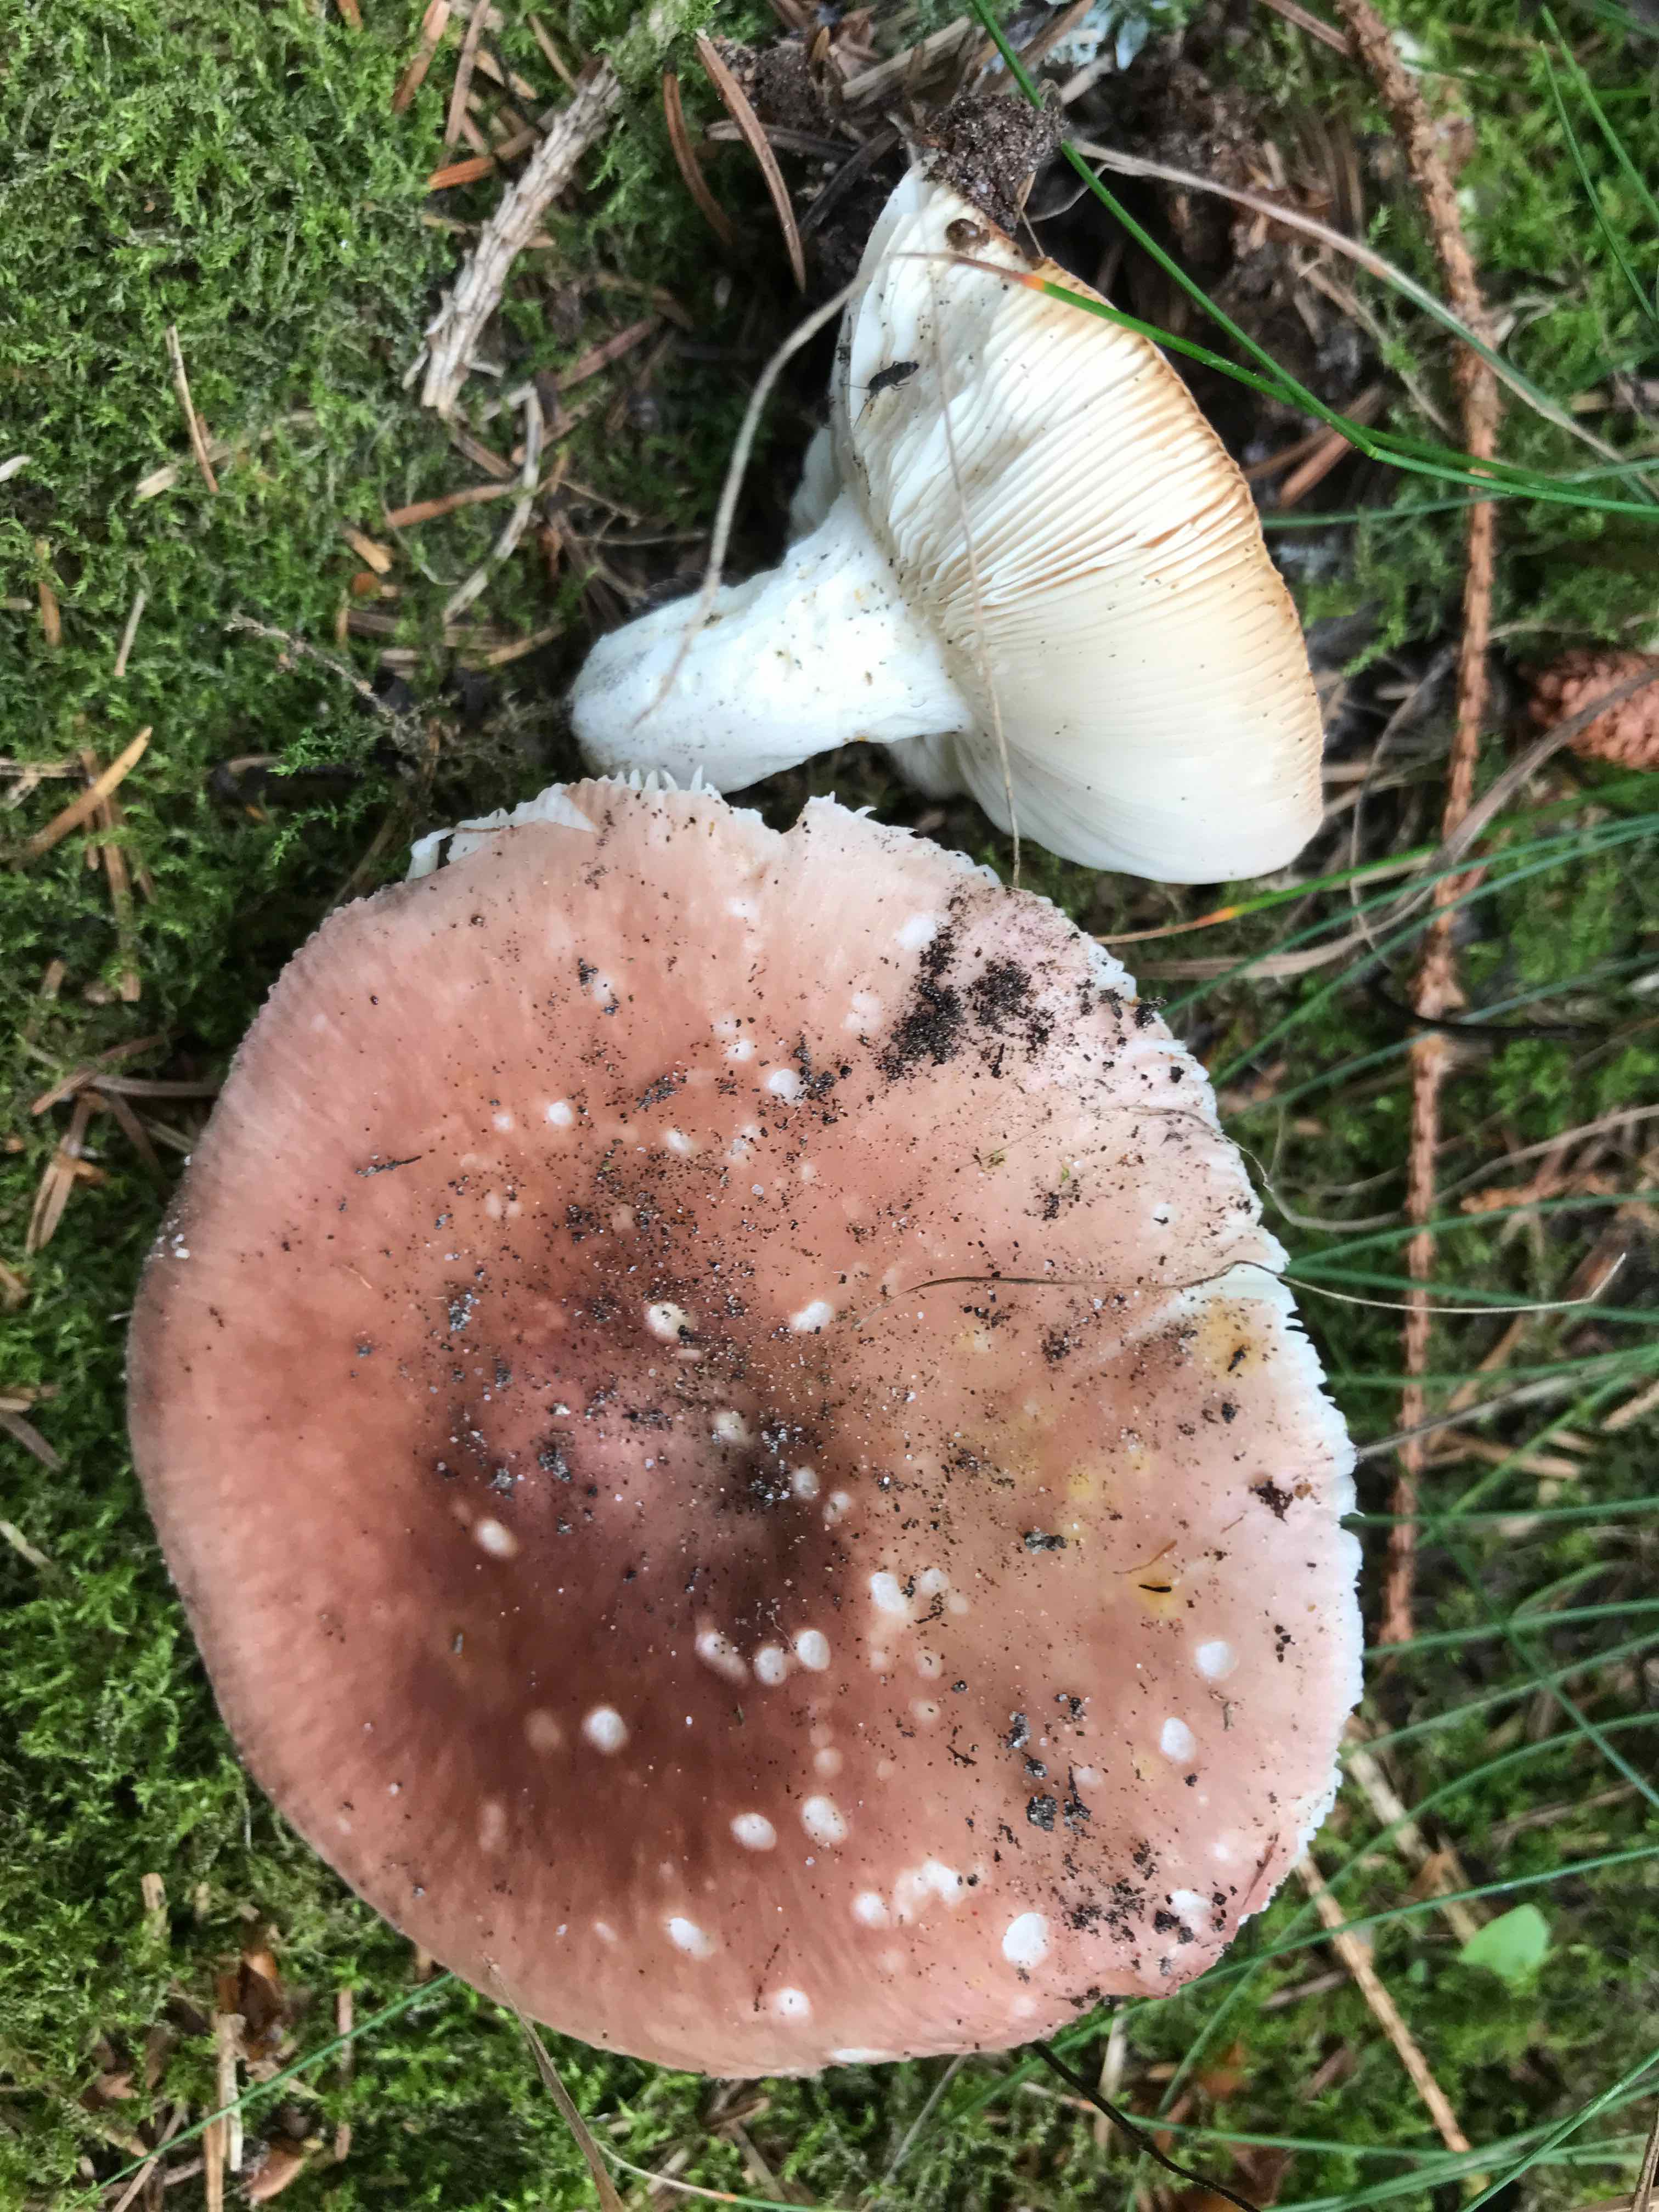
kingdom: Fungi
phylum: Basidiomycota
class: Agaricomycetes
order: Russulales
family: Russulaceae
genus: Russula
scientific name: Russula vesca
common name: spiselig skørhat
